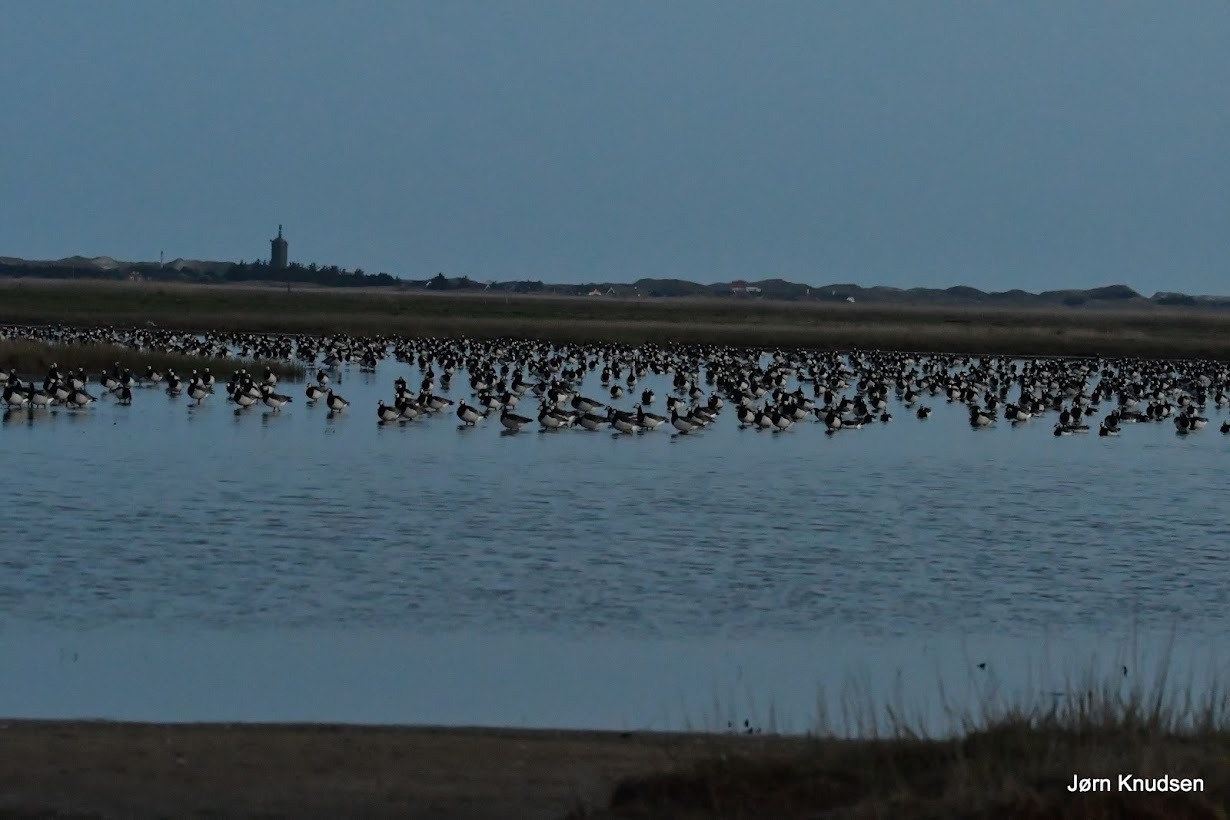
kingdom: Animalia
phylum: Chordata
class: Aves
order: Anseriformes
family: Anatidae
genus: Branta
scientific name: Branta leucopsis
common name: Bramgås
